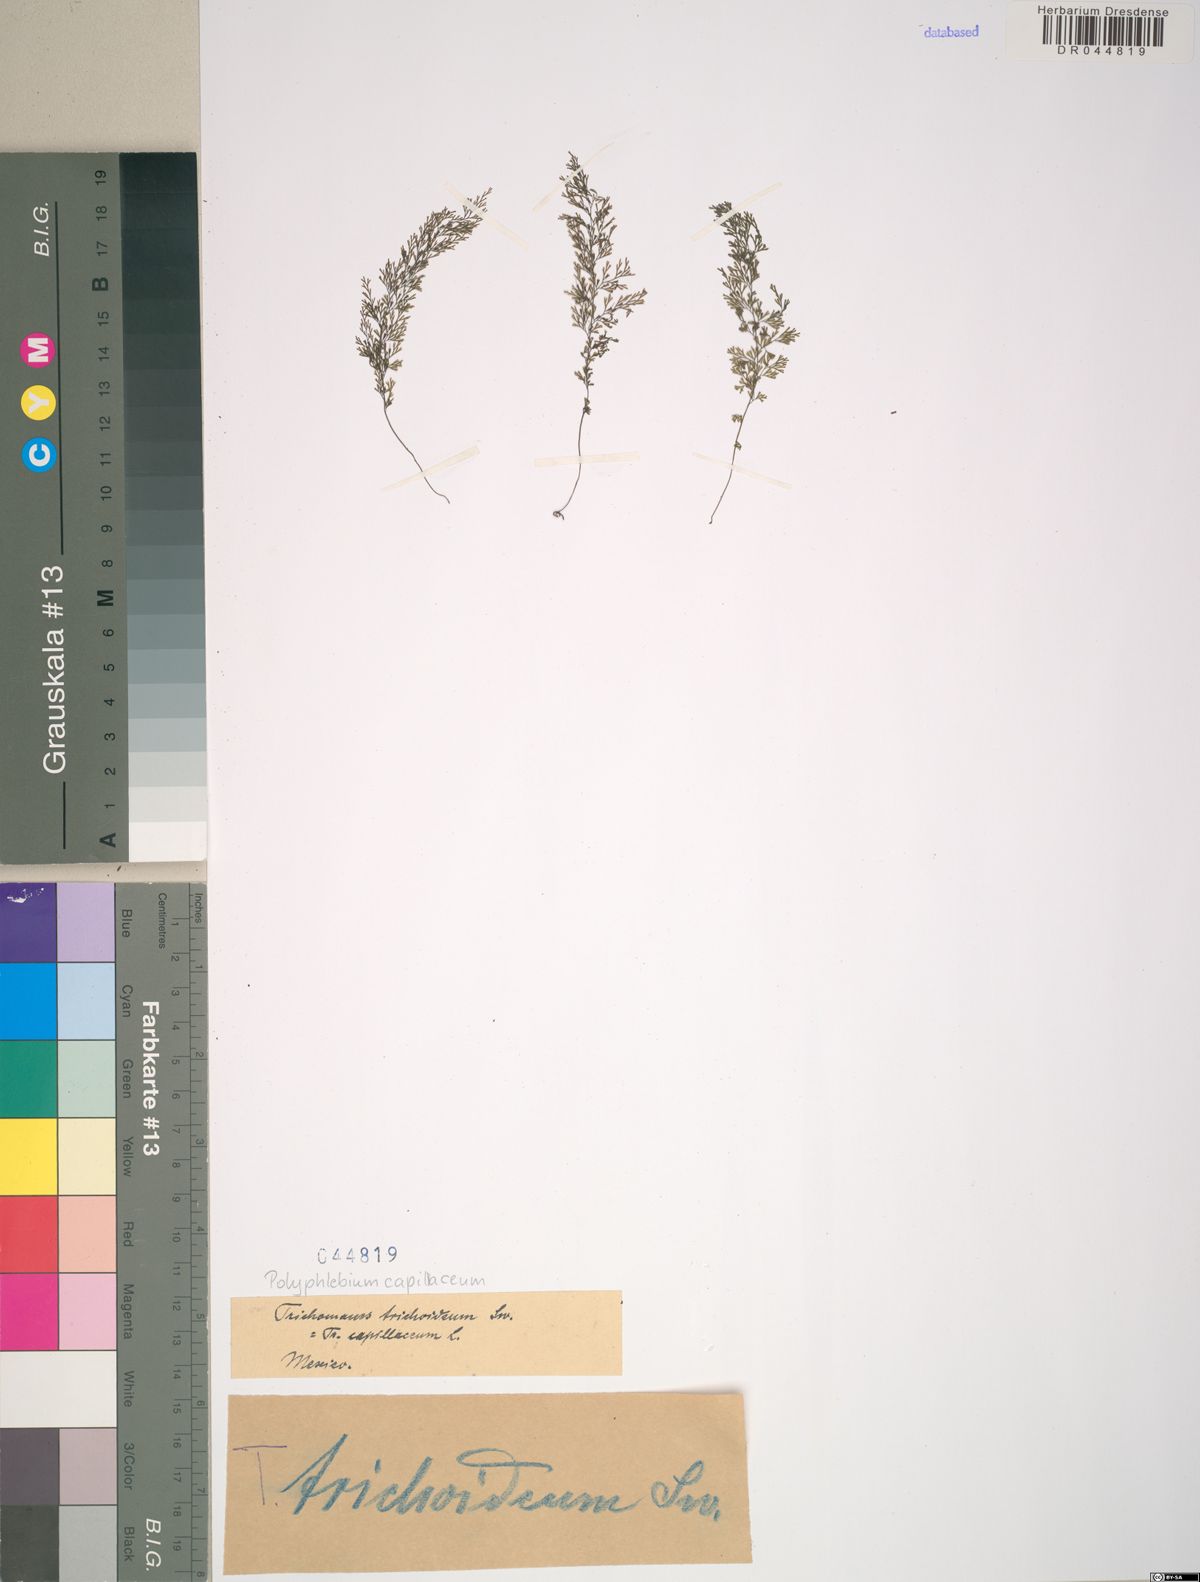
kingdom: Plantae
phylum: Tracheophyta
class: Polypodiopsida
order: Hymenophyllales
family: Hymenophyllaceae
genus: Polyphlebium
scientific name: Polyphlebium capillaceum
